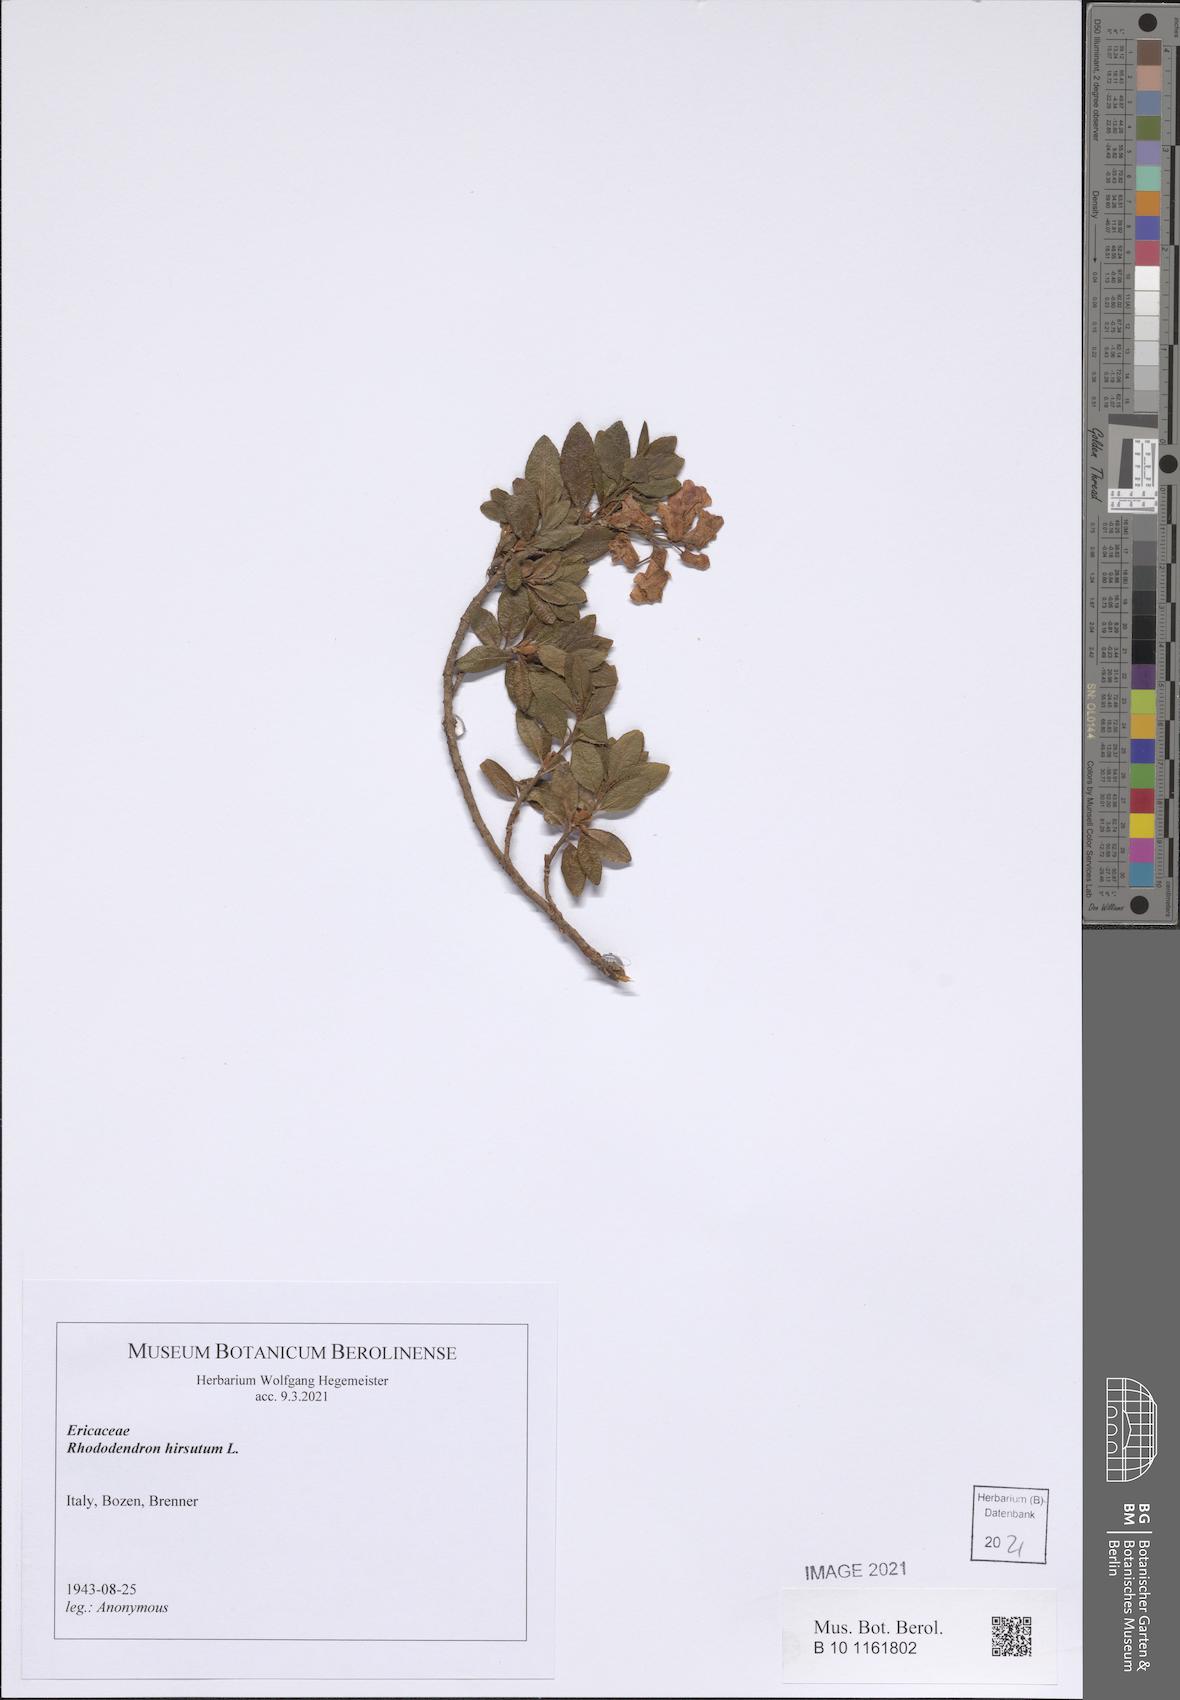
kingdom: Plantae
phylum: Tracheophyta
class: Magnoliopsida
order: Ericales
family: Ericaceae
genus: Rhododendron
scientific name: Rhododendron hirsutum
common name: Hairy alpenrose
